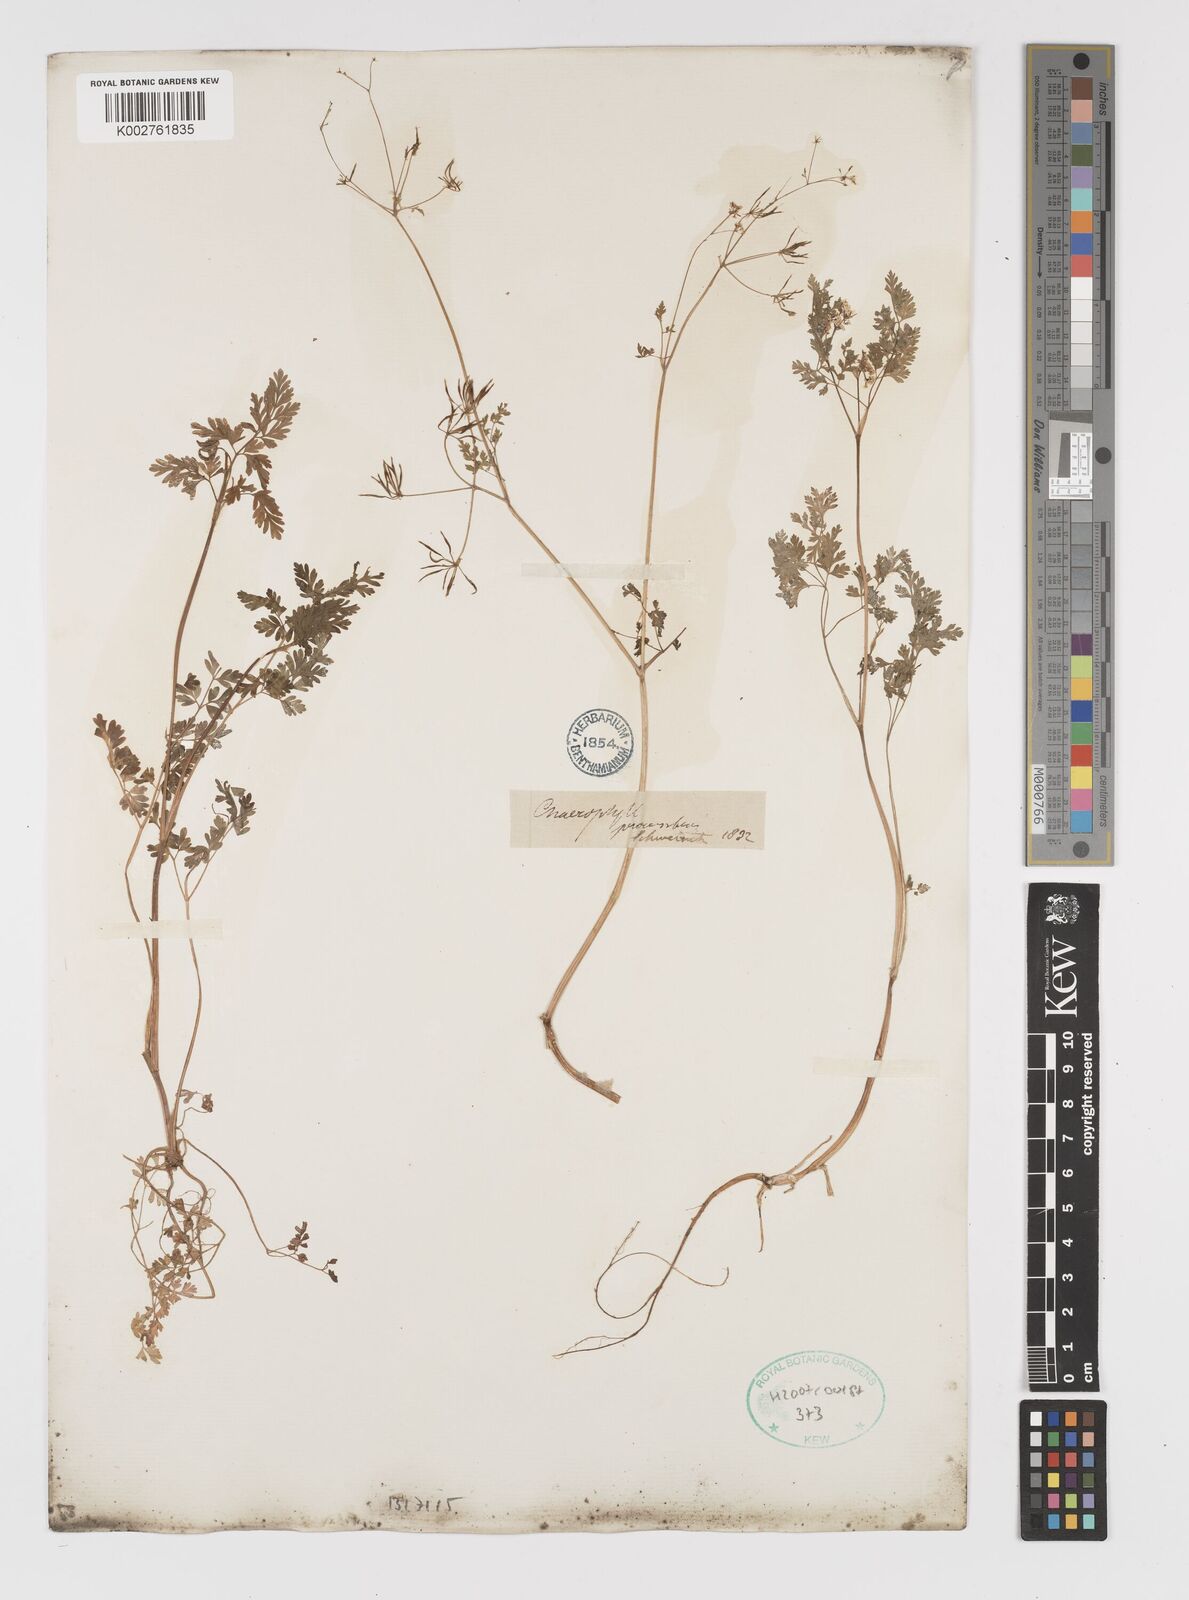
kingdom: Plantae
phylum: Tracheophyta
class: Magnoliopsida
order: Apiales
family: Apiaceae
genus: Chaerophyllum
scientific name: Chaerophyllum procumbens
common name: Spreading chervil
